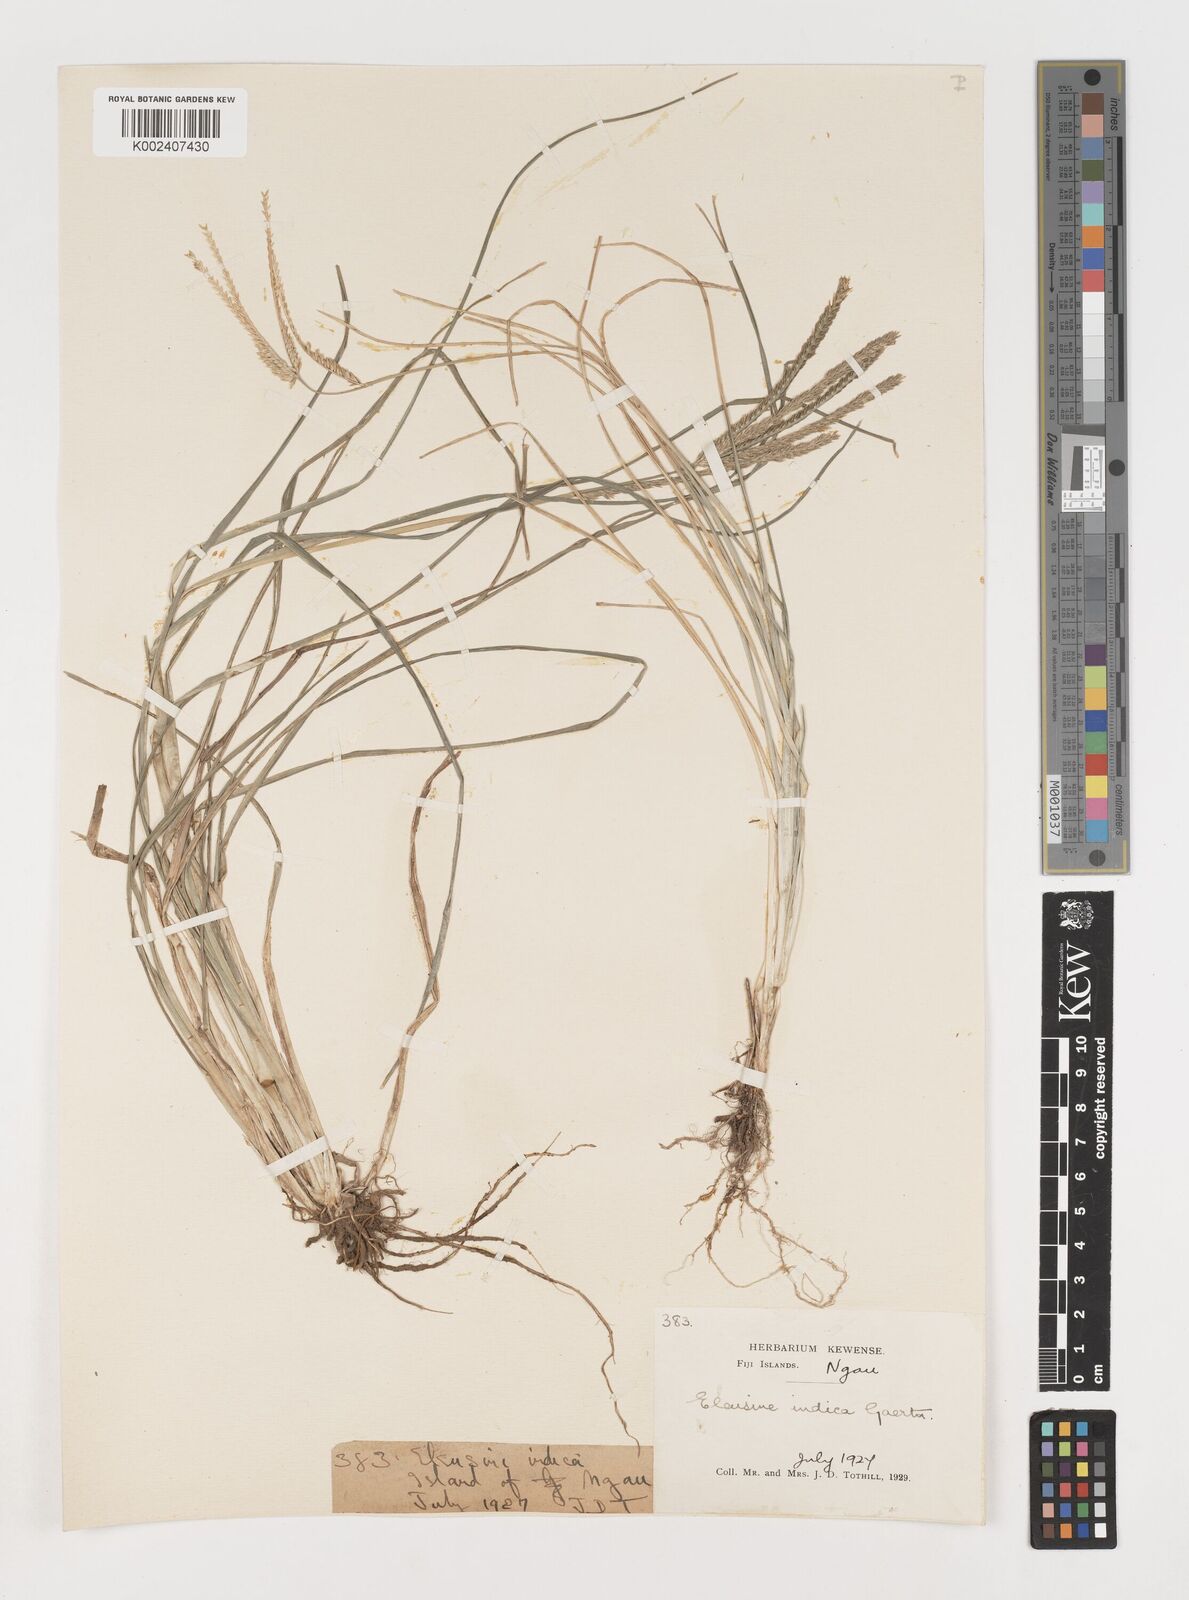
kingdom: Plantae
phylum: Tracheophyta
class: Liliopsida
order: Poales
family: Poaceae
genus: Eleusine
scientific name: Eleusine indica
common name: Yard-grass
